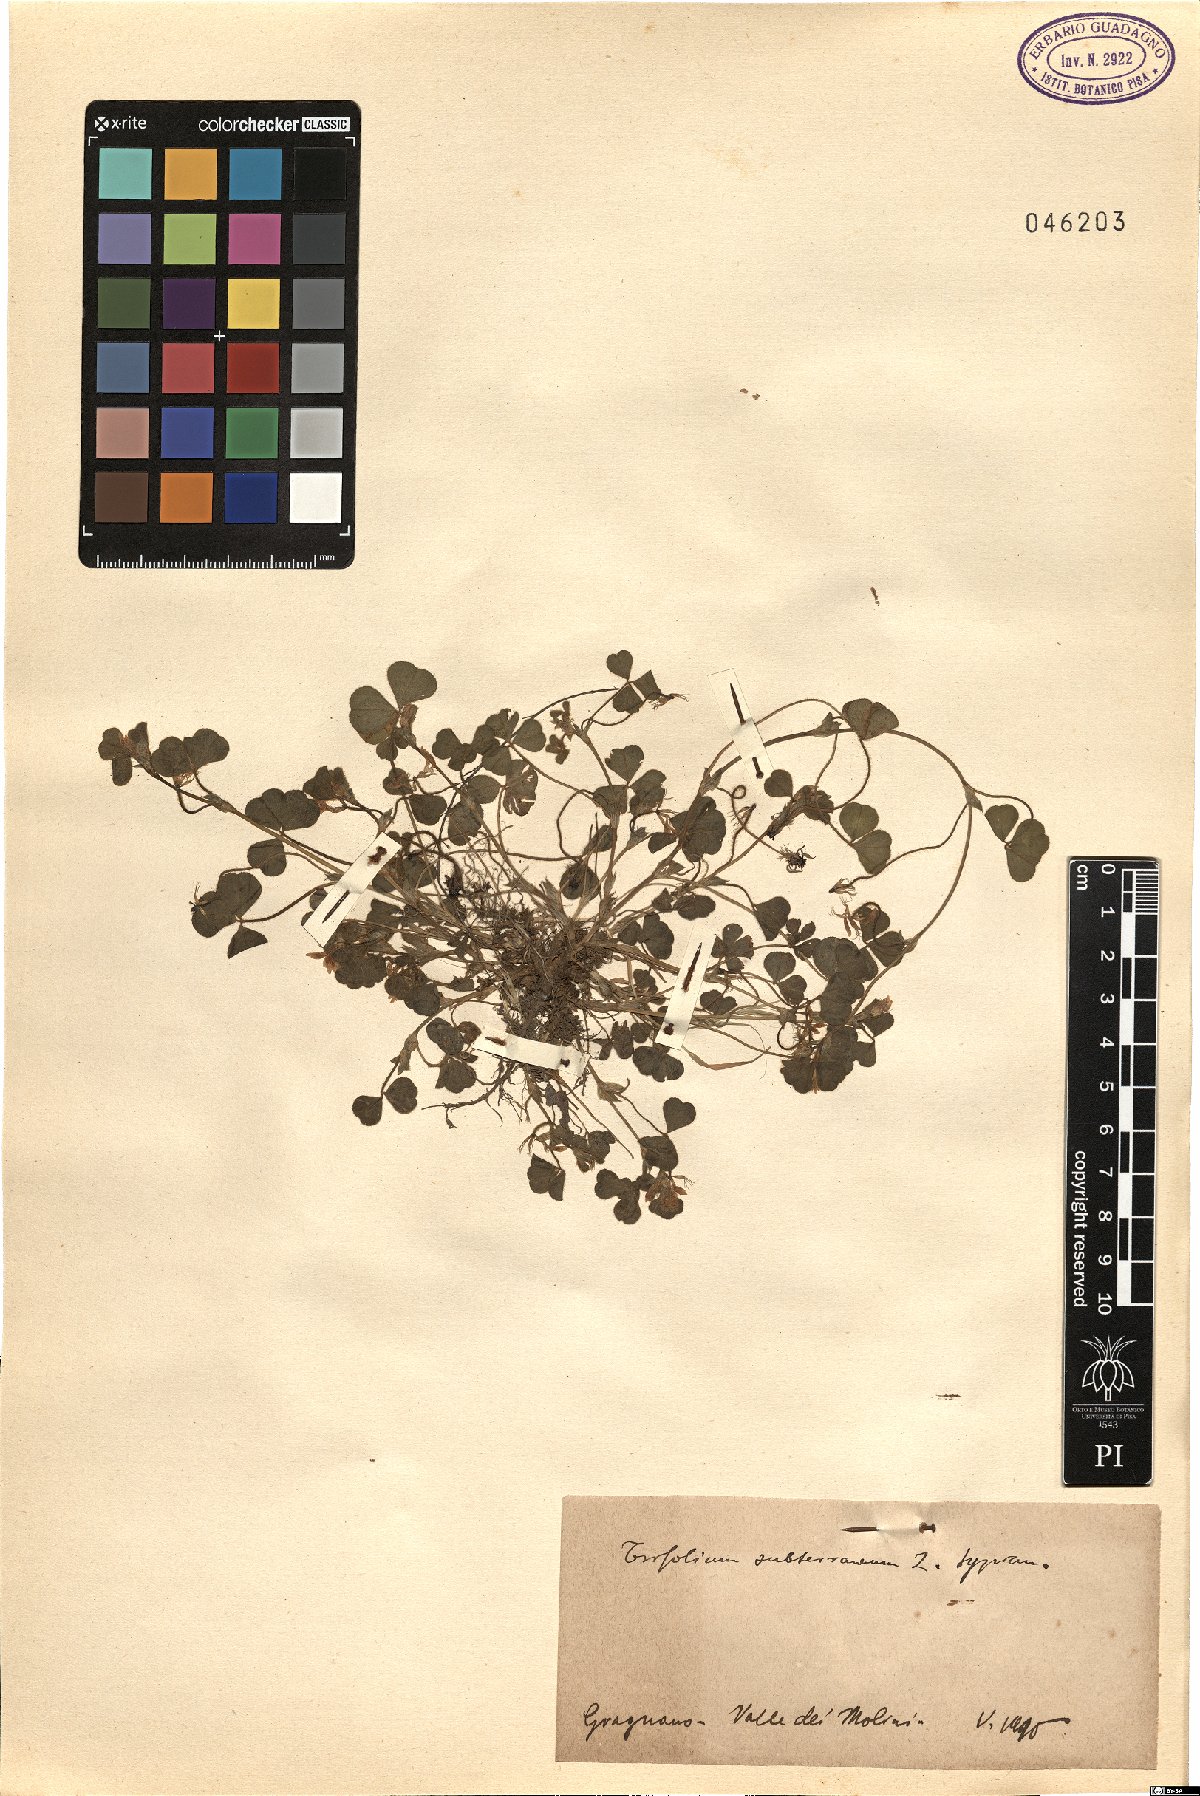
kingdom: Plantae
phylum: Tracheophyta
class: Magnoliopsida
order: Fabales
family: Fabaceae
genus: Trifolium
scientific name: Trifolium subterraneum
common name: Subterranean clover
